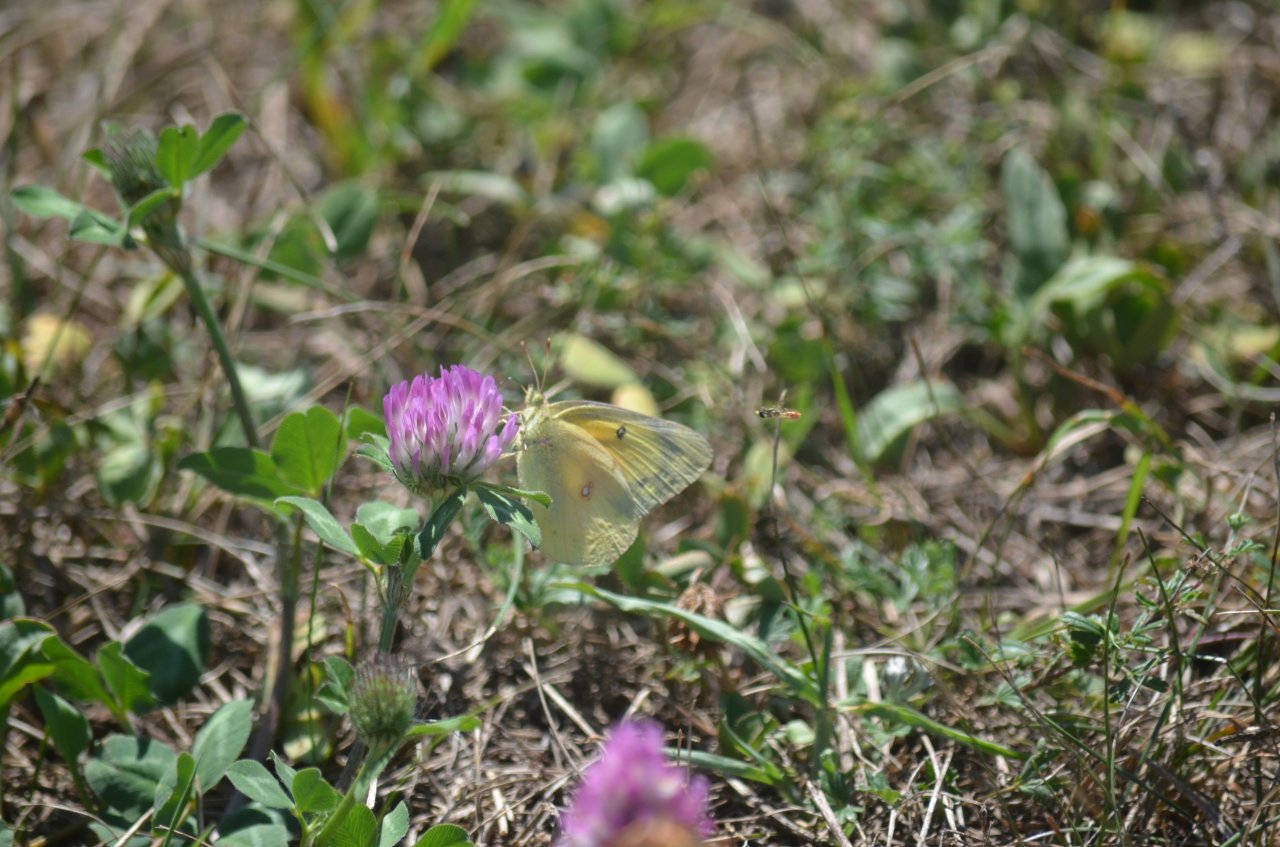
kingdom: Animalia
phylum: Arthropoda
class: Insecta
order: Lepidoptera
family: Pieridae
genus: Colias
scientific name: Colias eurytheme
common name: Orange Sulphur
